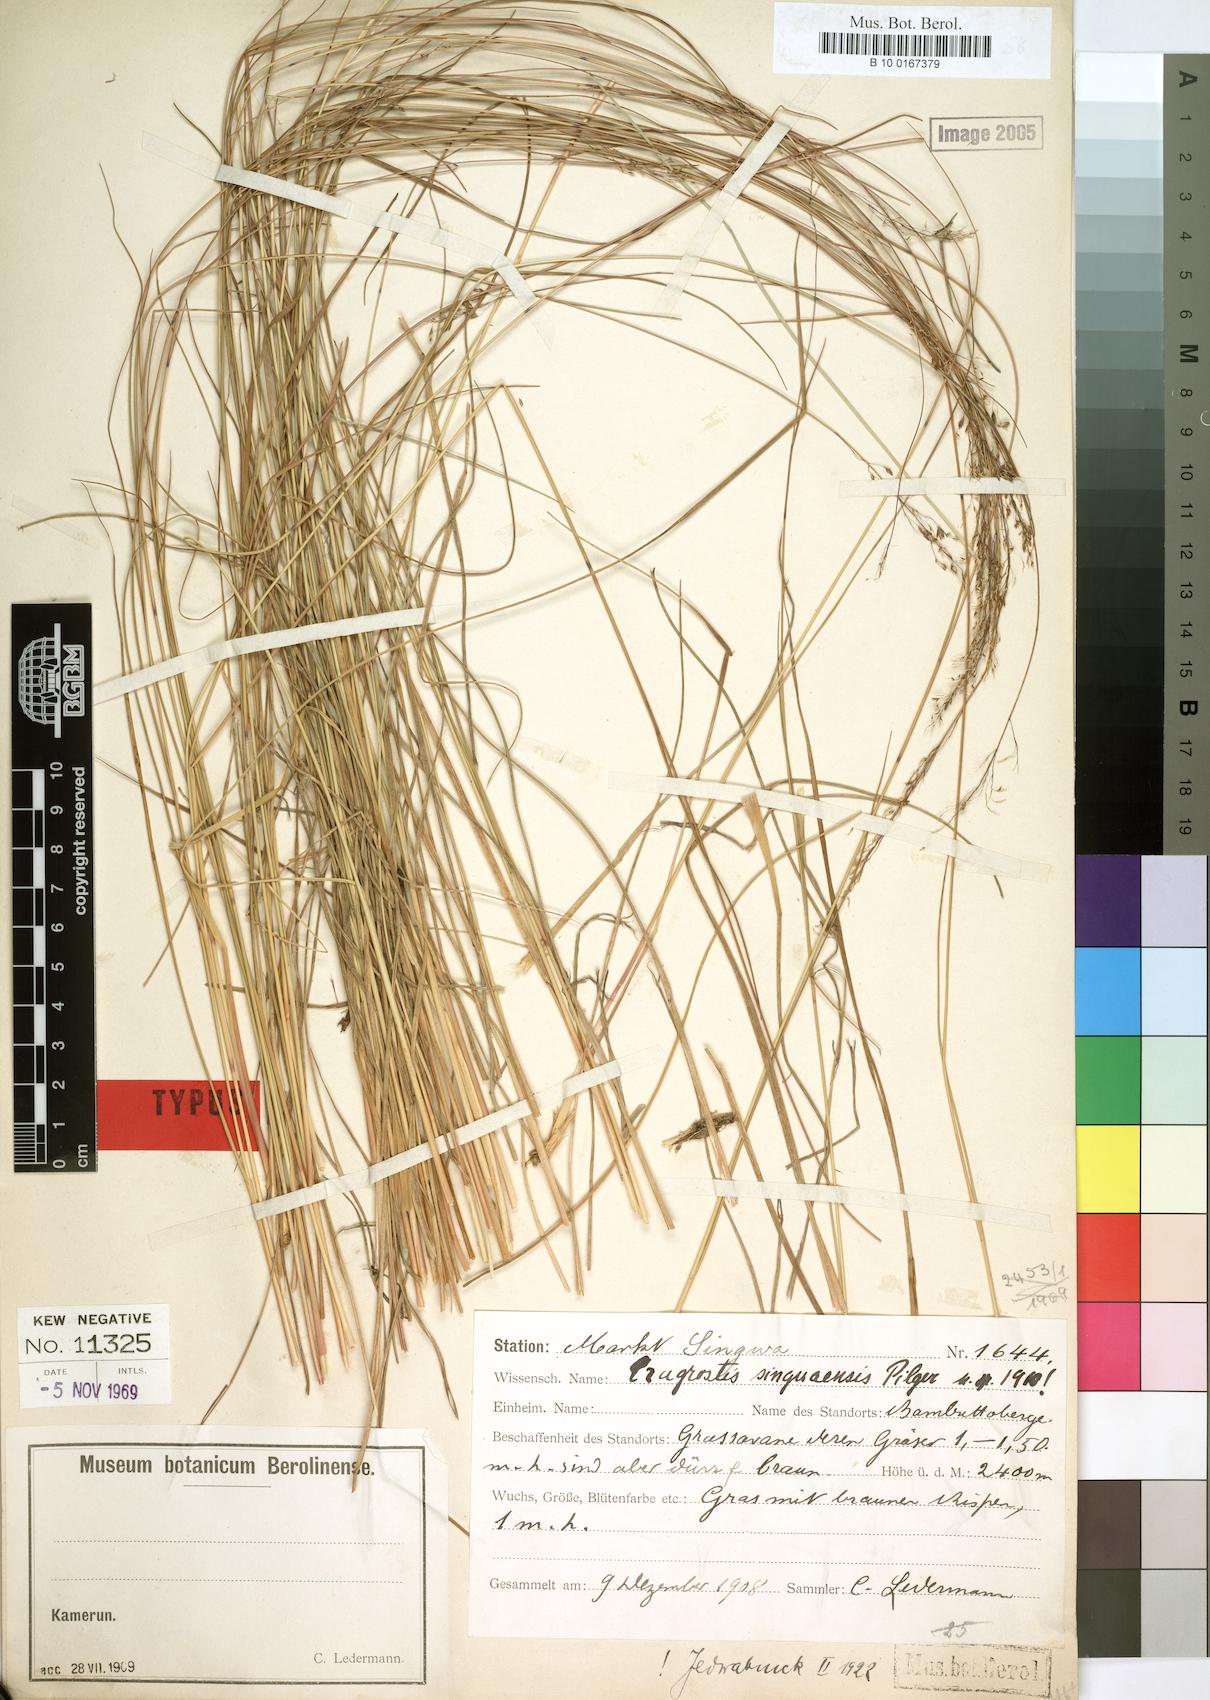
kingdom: Plantae
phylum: Tracheophyta
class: Liliopsida
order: Poales
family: Poaceae
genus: Eragrostis
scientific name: Eragrostis singuaensis
